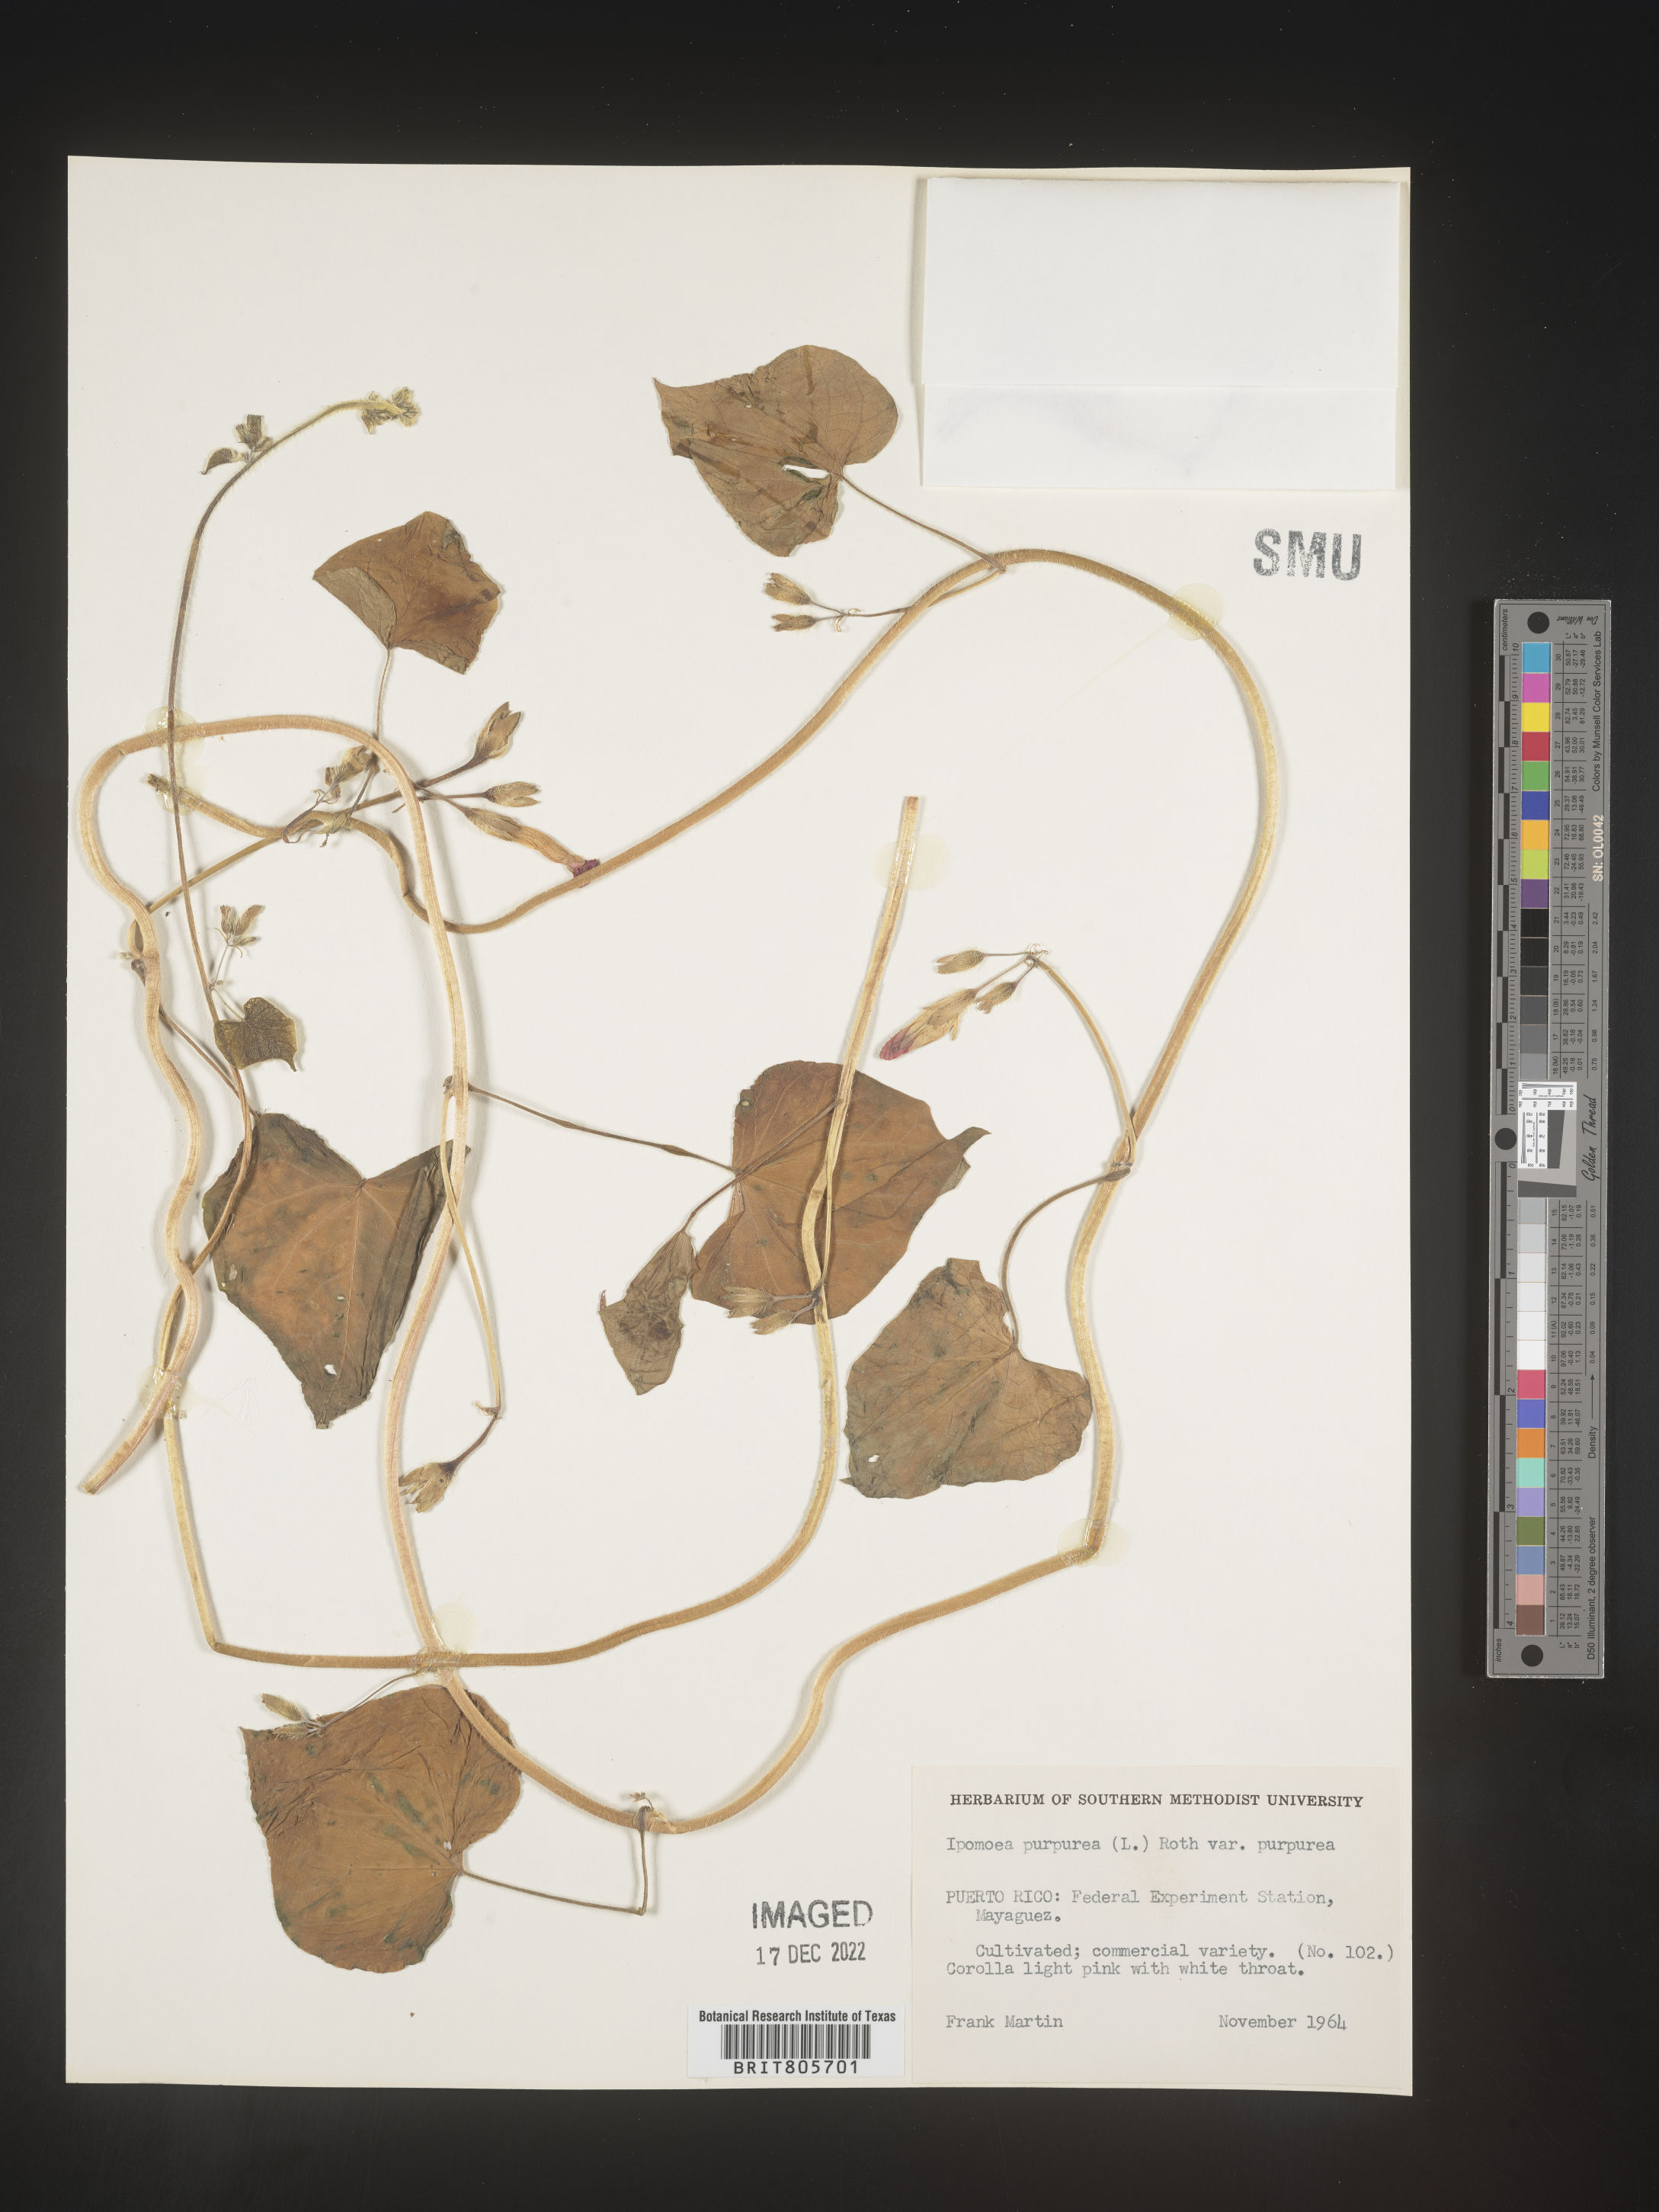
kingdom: Plantae
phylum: Tracheophyta
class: Magnoliopsida
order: Solanales
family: Convolvulaceae
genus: Ipomoea
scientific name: Ipomoea purpurea
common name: Common morning-glory
